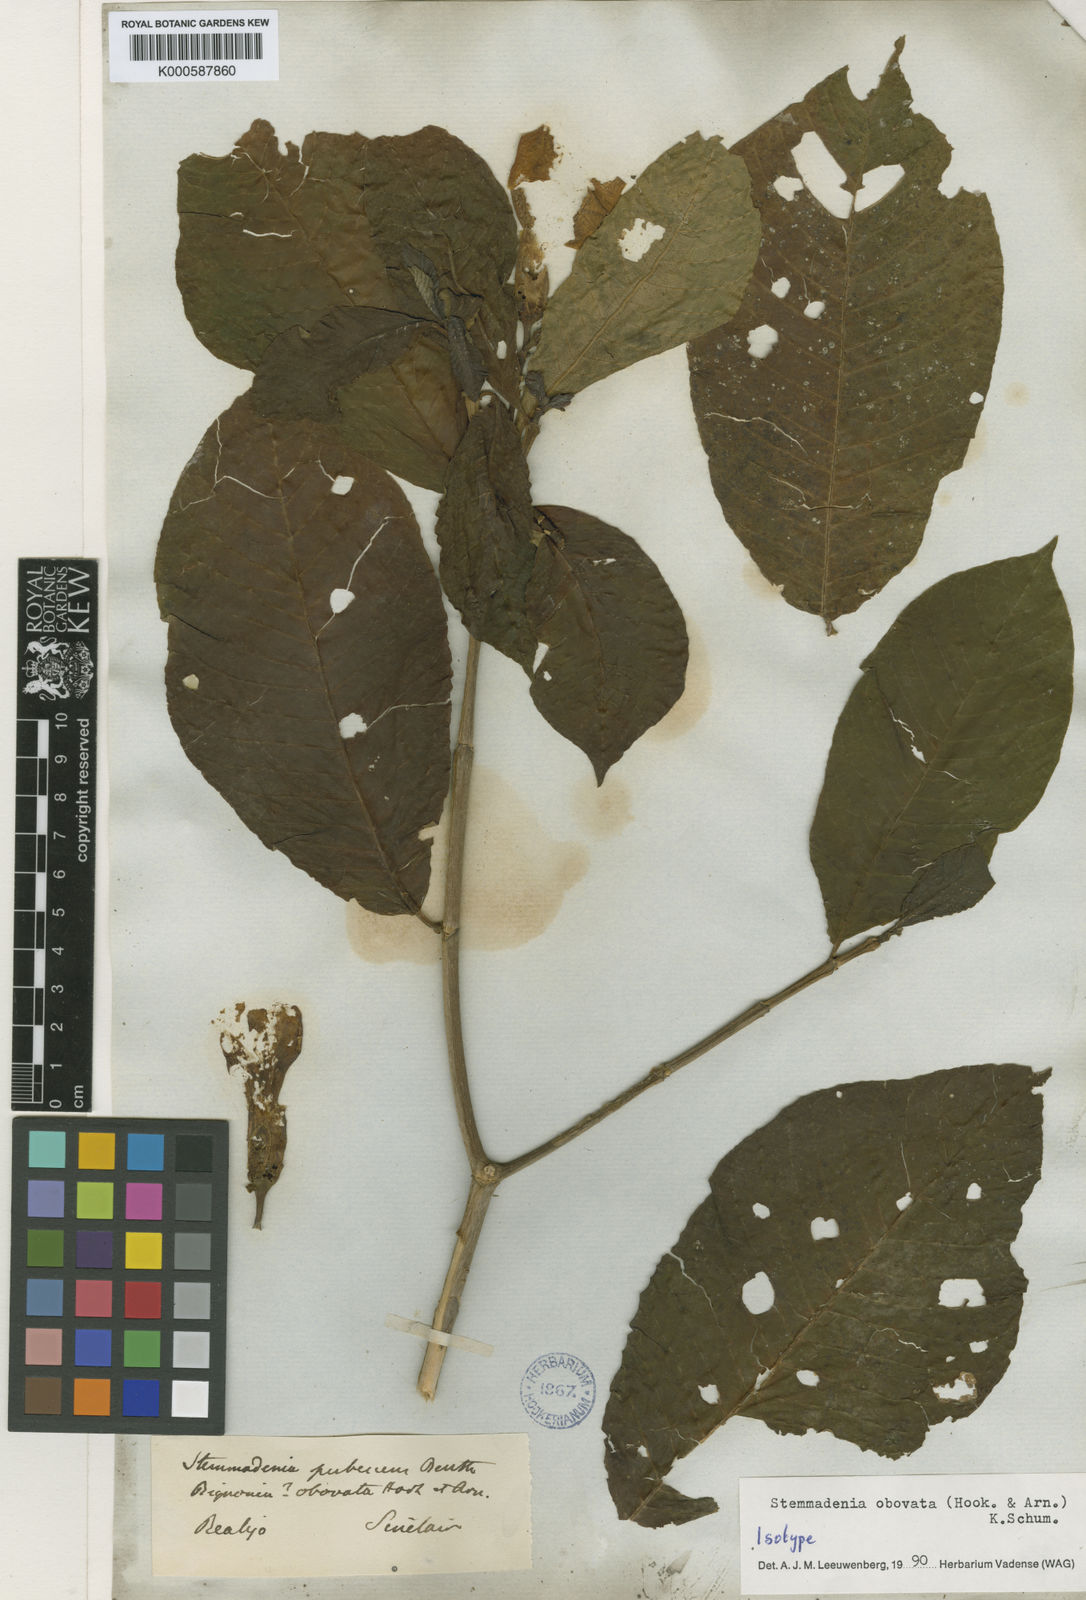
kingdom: Plantae
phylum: Tracheophyta
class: Magnoliopsida
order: Gentianales
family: Apocynaceae
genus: Tabernaemontana
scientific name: Tabernaemontana glabra
